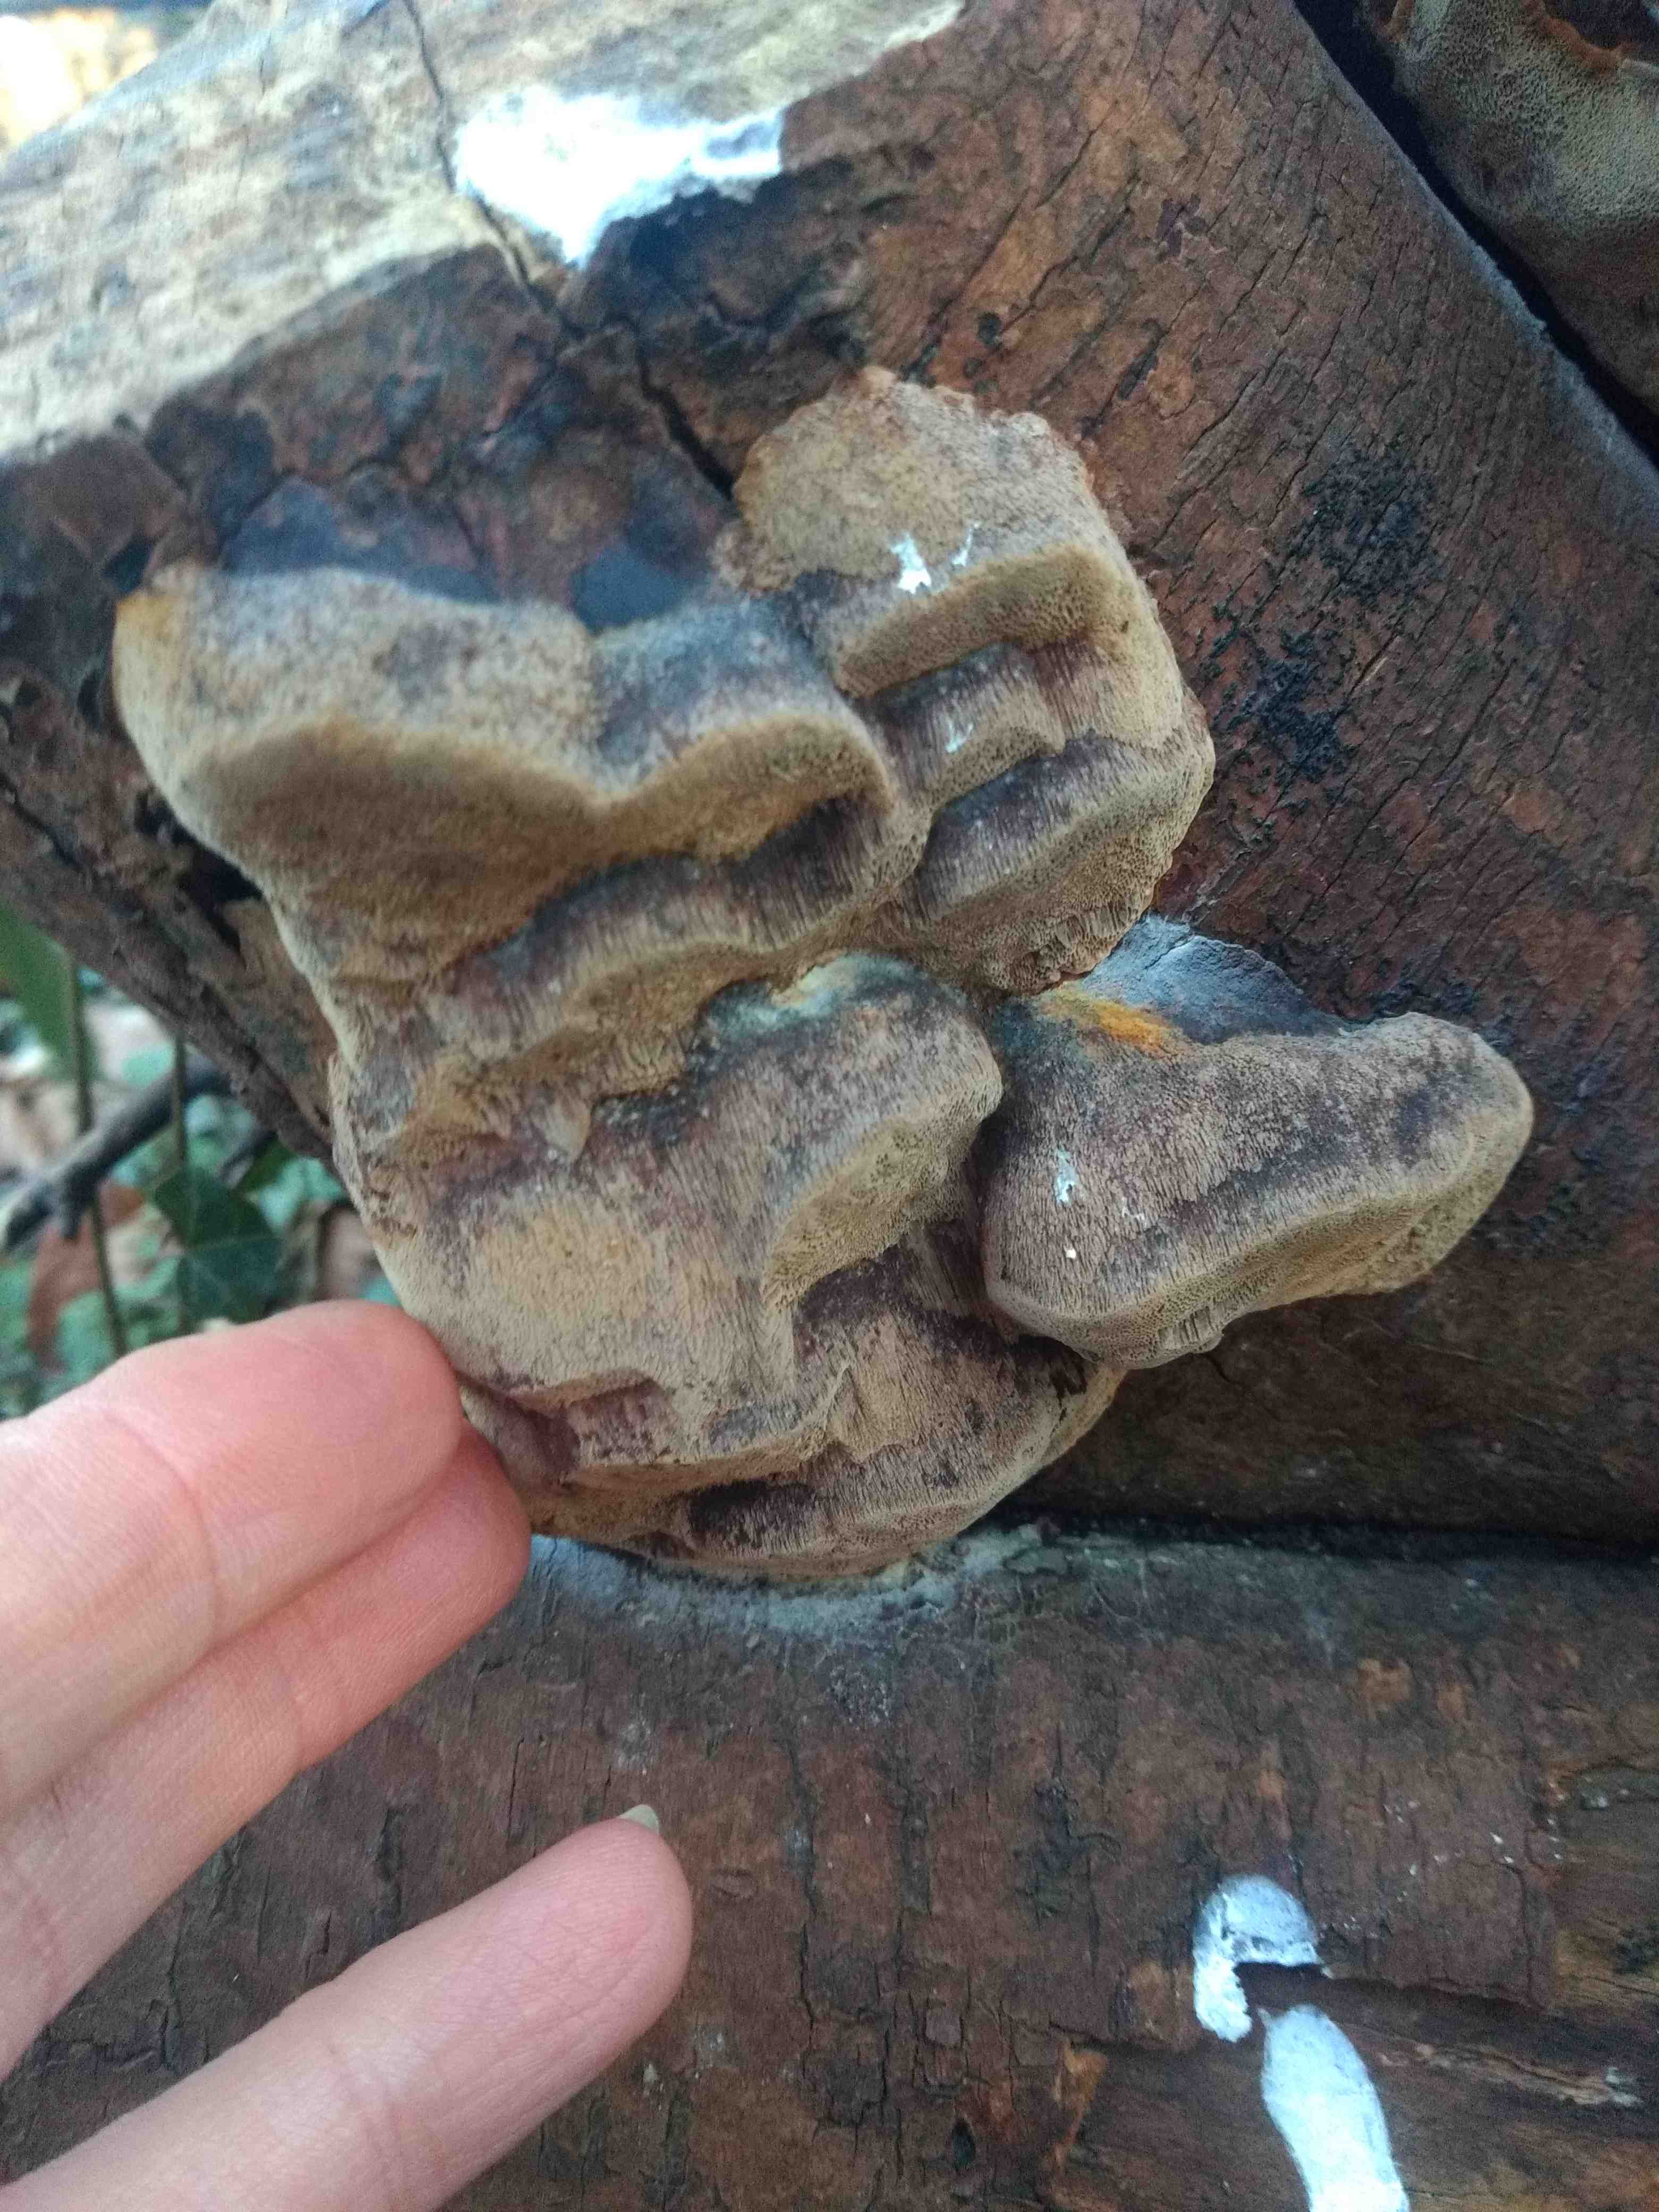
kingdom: Fungi
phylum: Basidiomycota
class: Agaricomycetes
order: Hymenochaetales
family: Hymenochaetaceae
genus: Phellinus
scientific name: Phellinus pomaceus
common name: blomme-ildporesvamp
